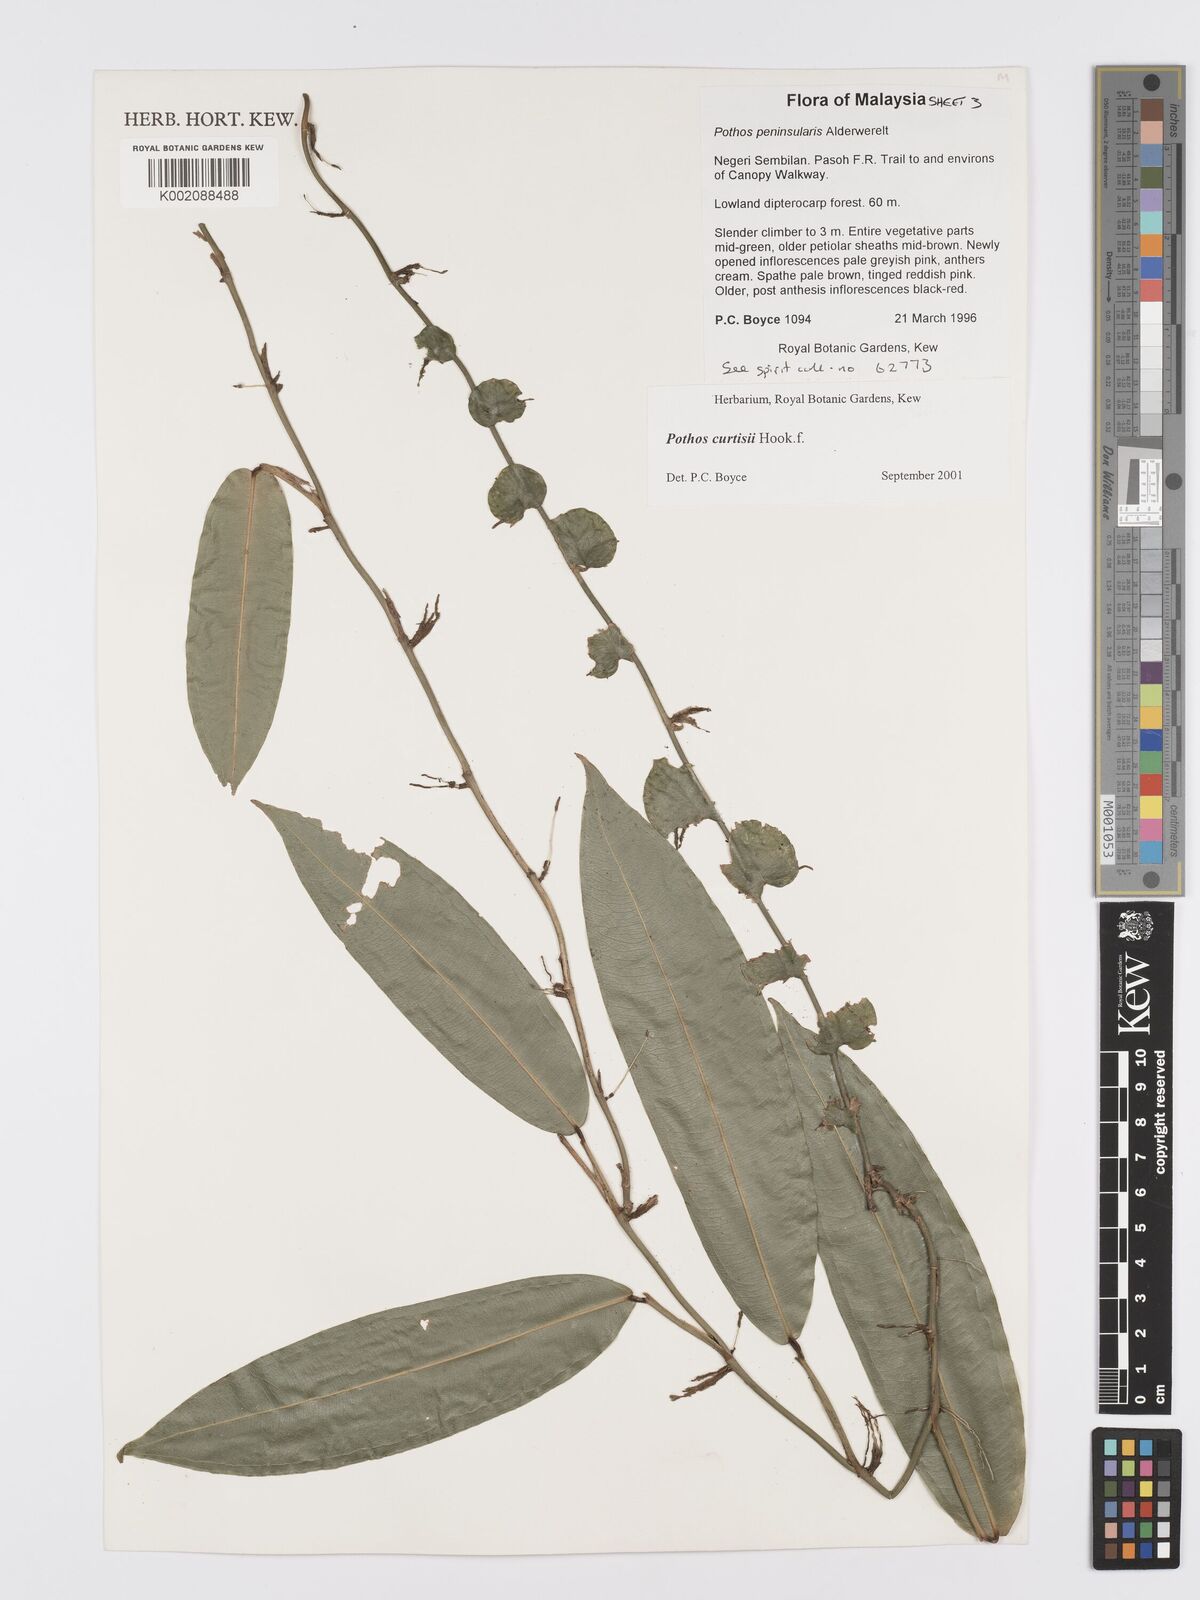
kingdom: Plantae
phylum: Tracheophyta
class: Liliopsida
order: Alismatales
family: Araceae
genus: Pothos
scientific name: Pothos curtisii
